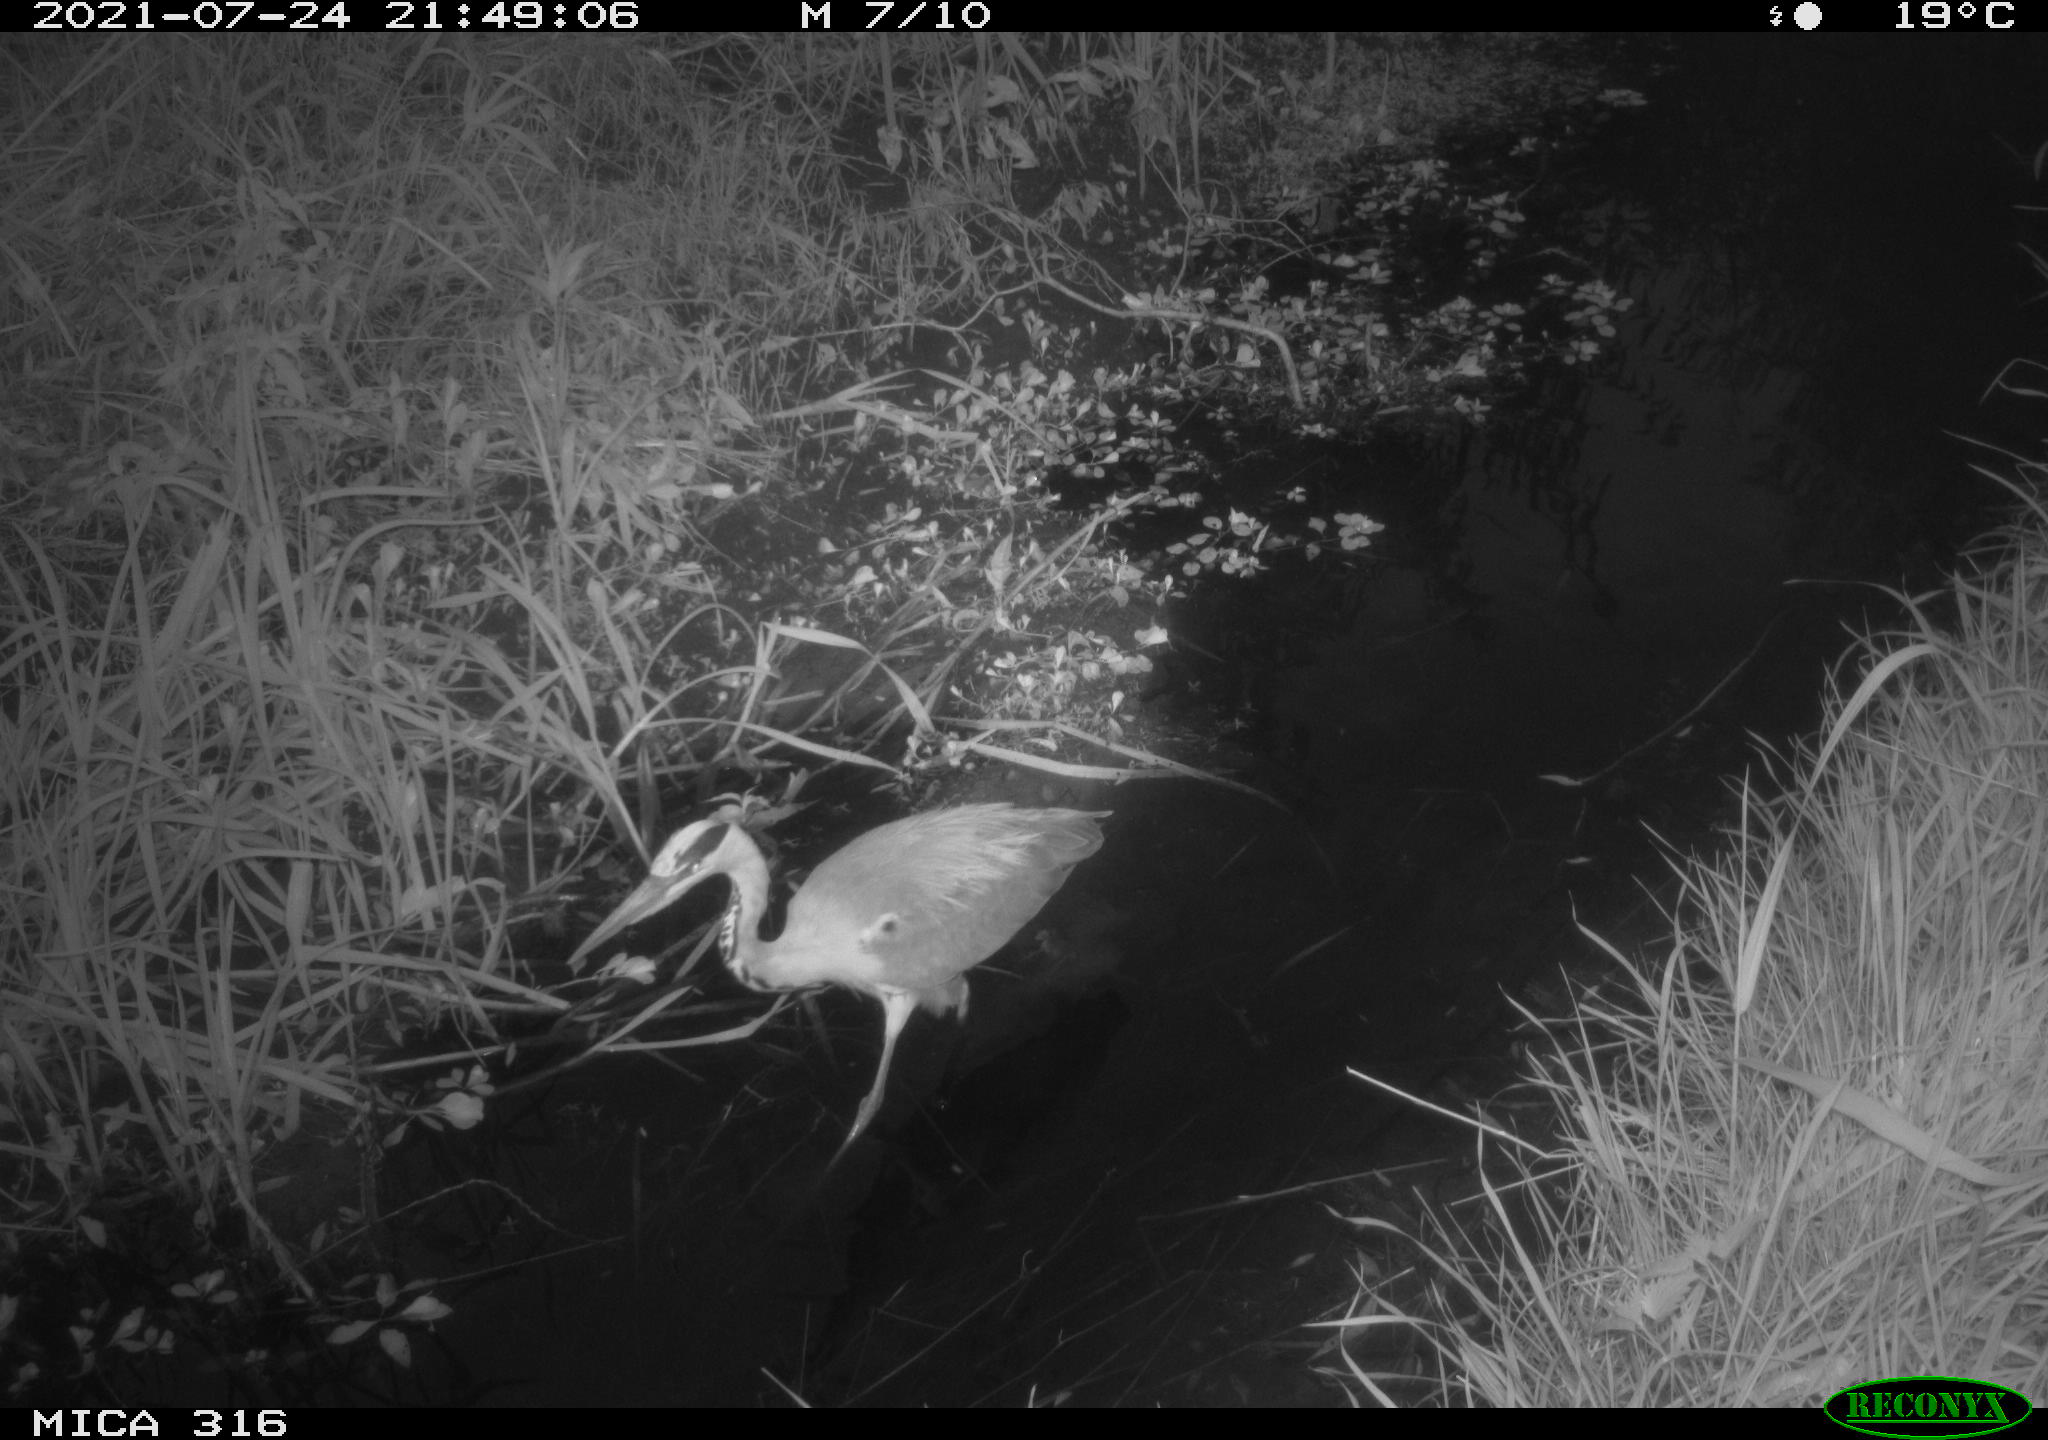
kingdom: Animalia
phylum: Chordata
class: Aves
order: Pelecaniformes
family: Ardeidae
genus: Ardea
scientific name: Ardea
